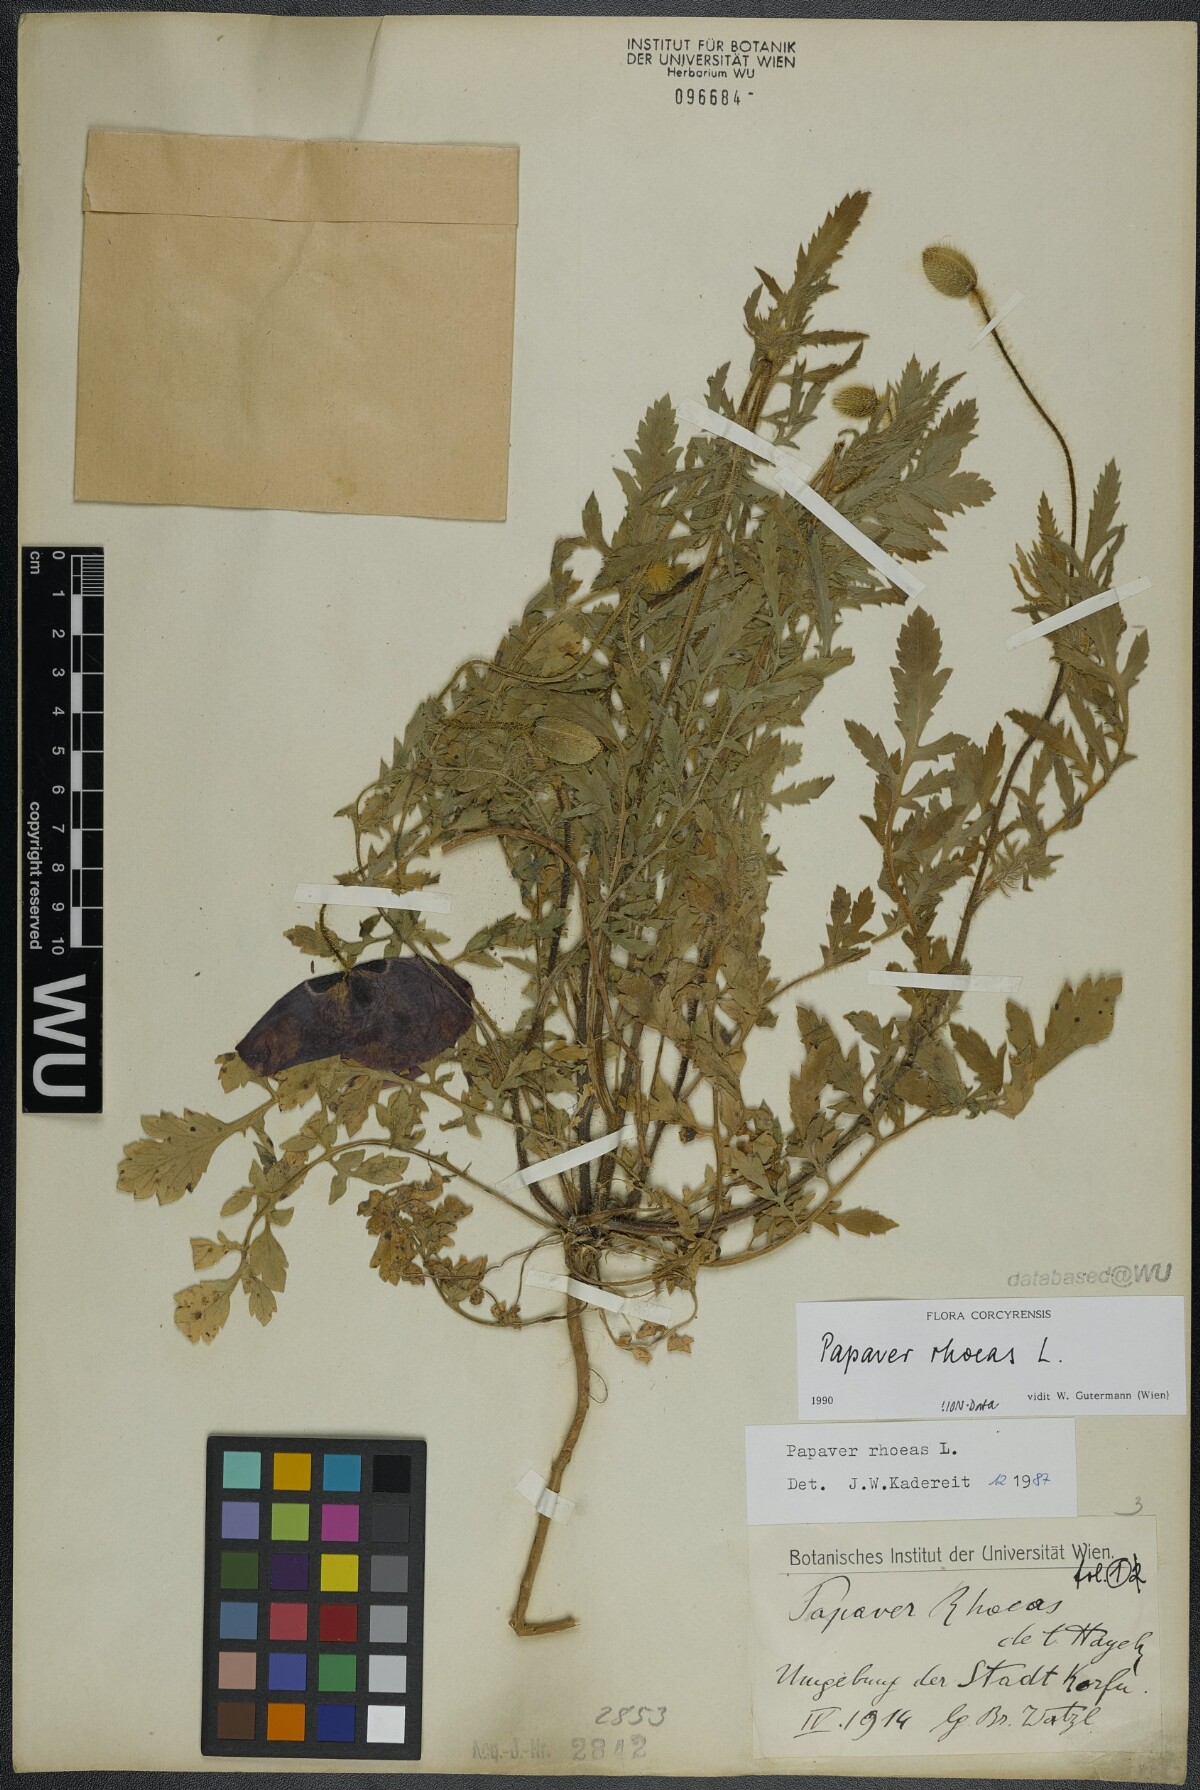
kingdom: Plantae
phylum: Tracheophyta
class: Magnoliopsida
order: Ranunculales
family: Papaveraceae
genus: Papaver
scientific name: Papaver rhoeas
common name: Corn poppy
